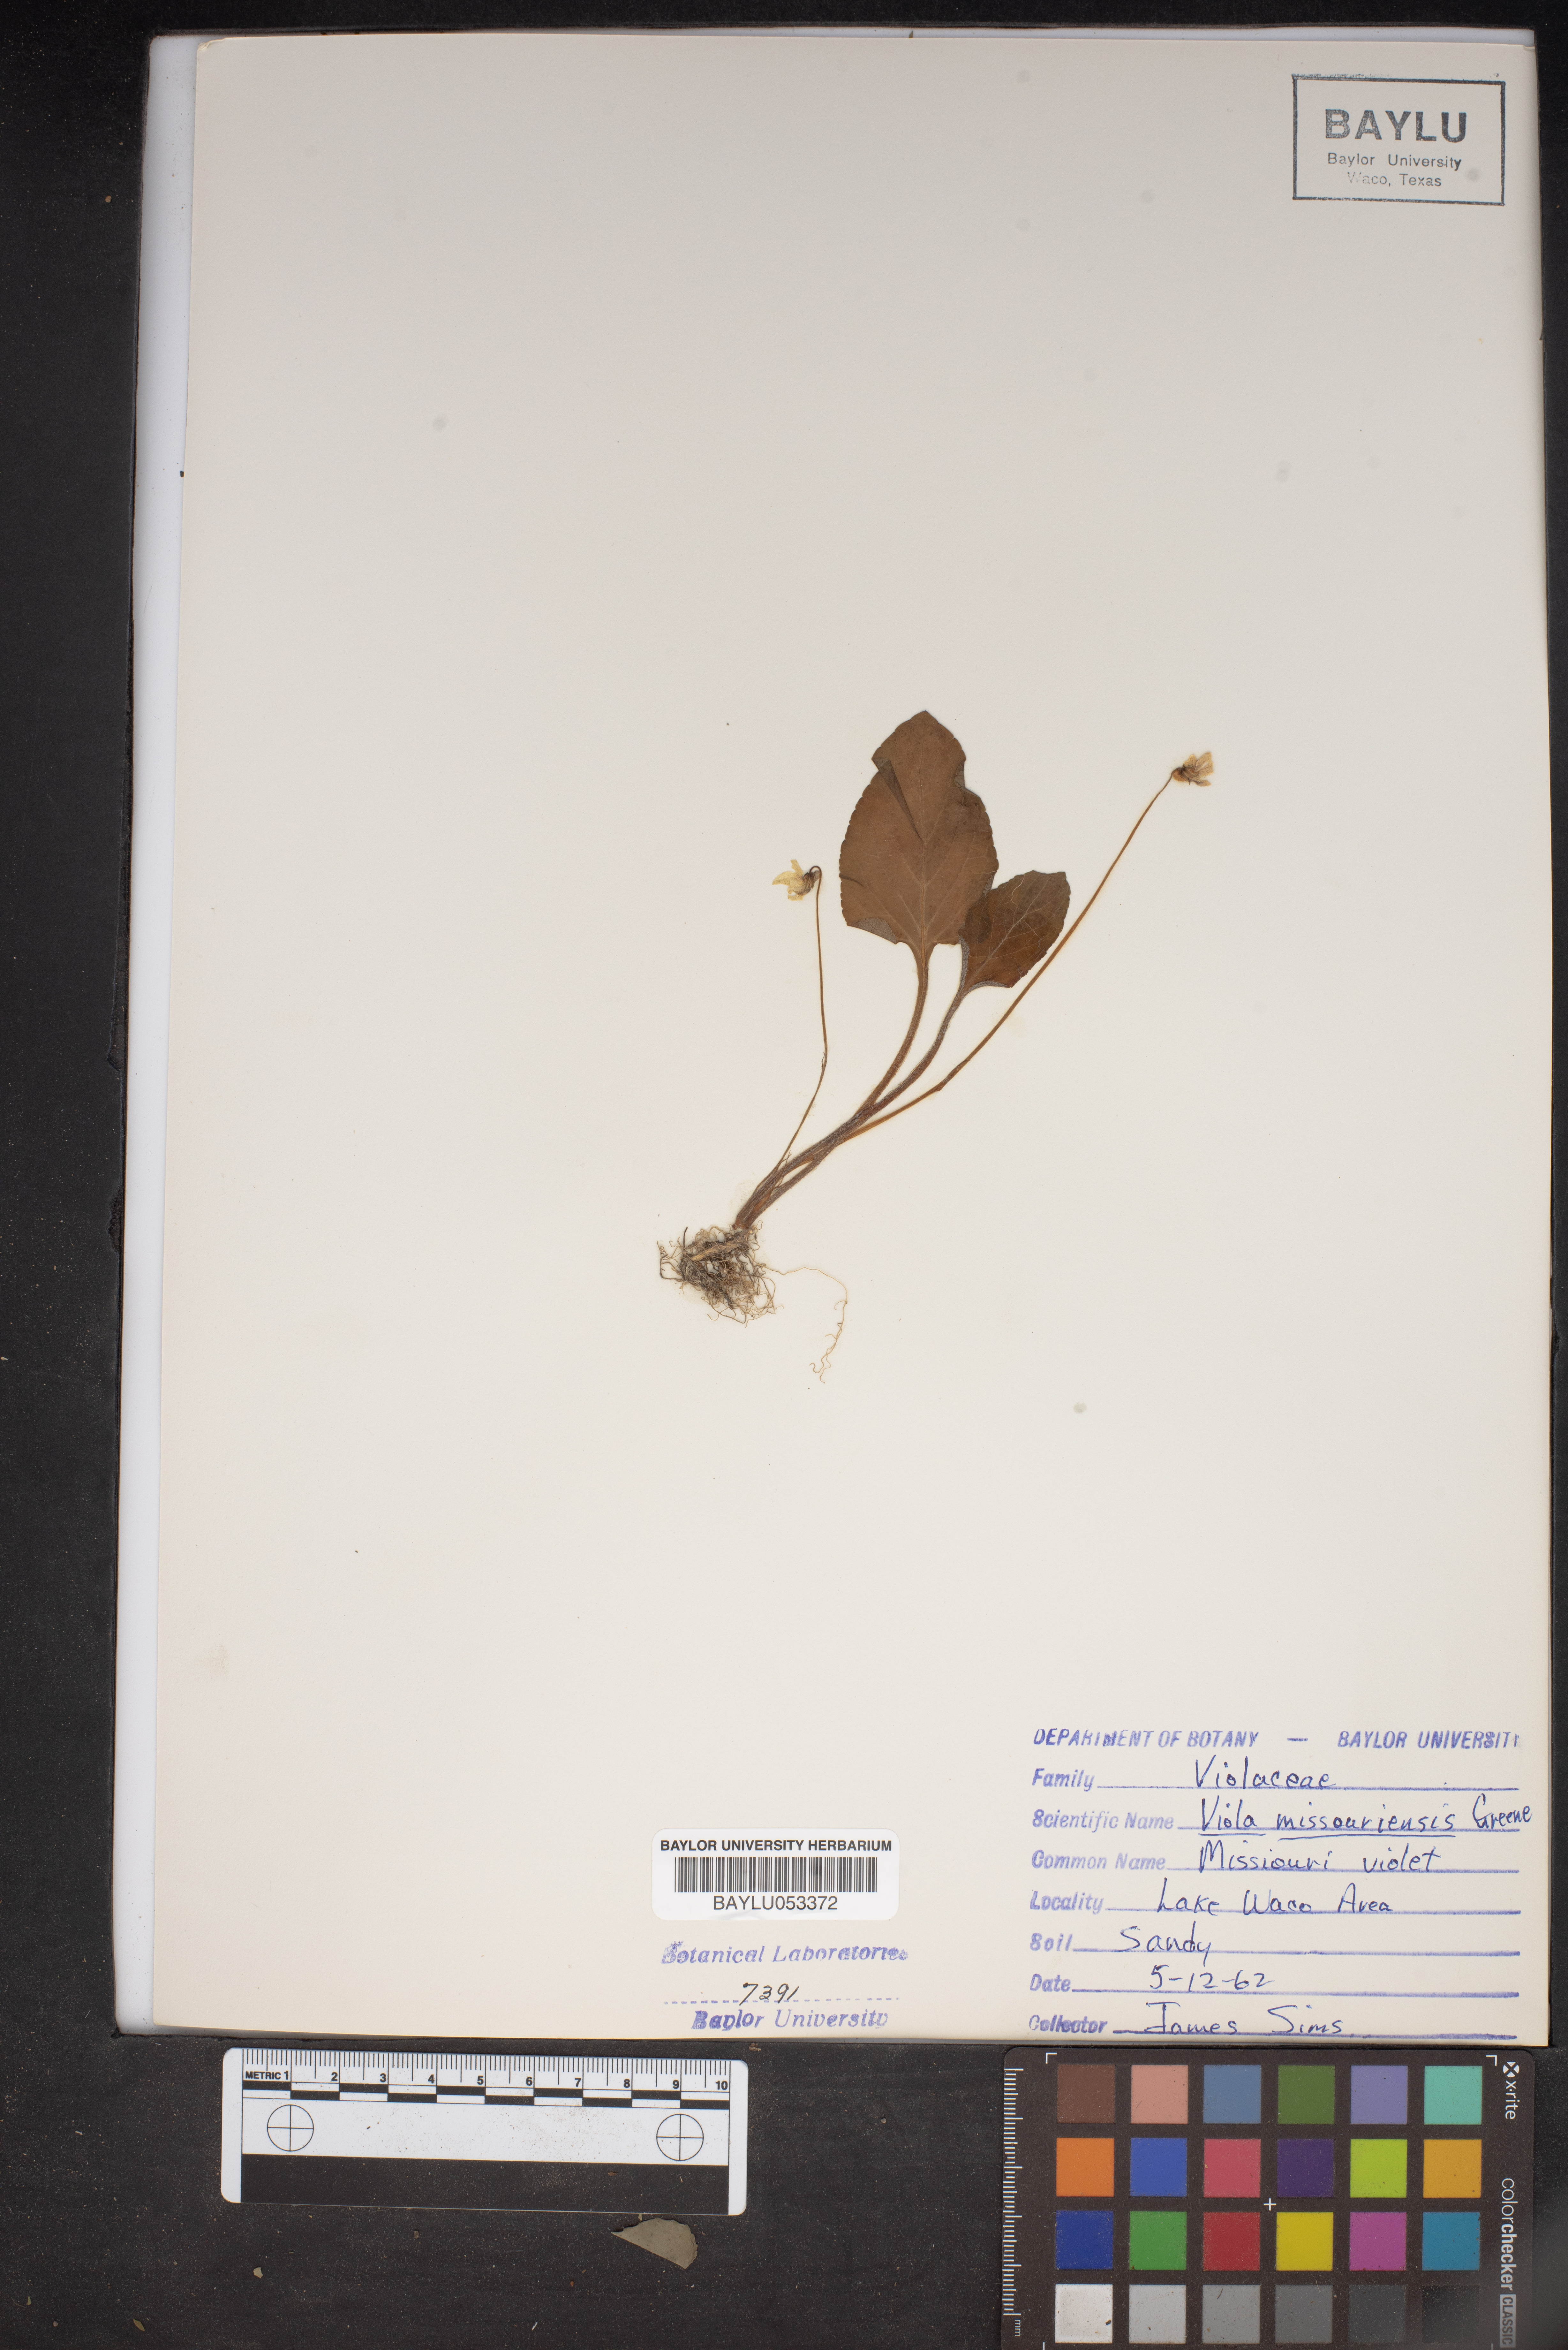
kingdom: Plantae
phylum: Tracheophyta
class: Magnoliopsida
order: Malpighiales
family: Violaceae
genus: Viola
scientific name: Viola missouriensis
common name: Missouri violet
